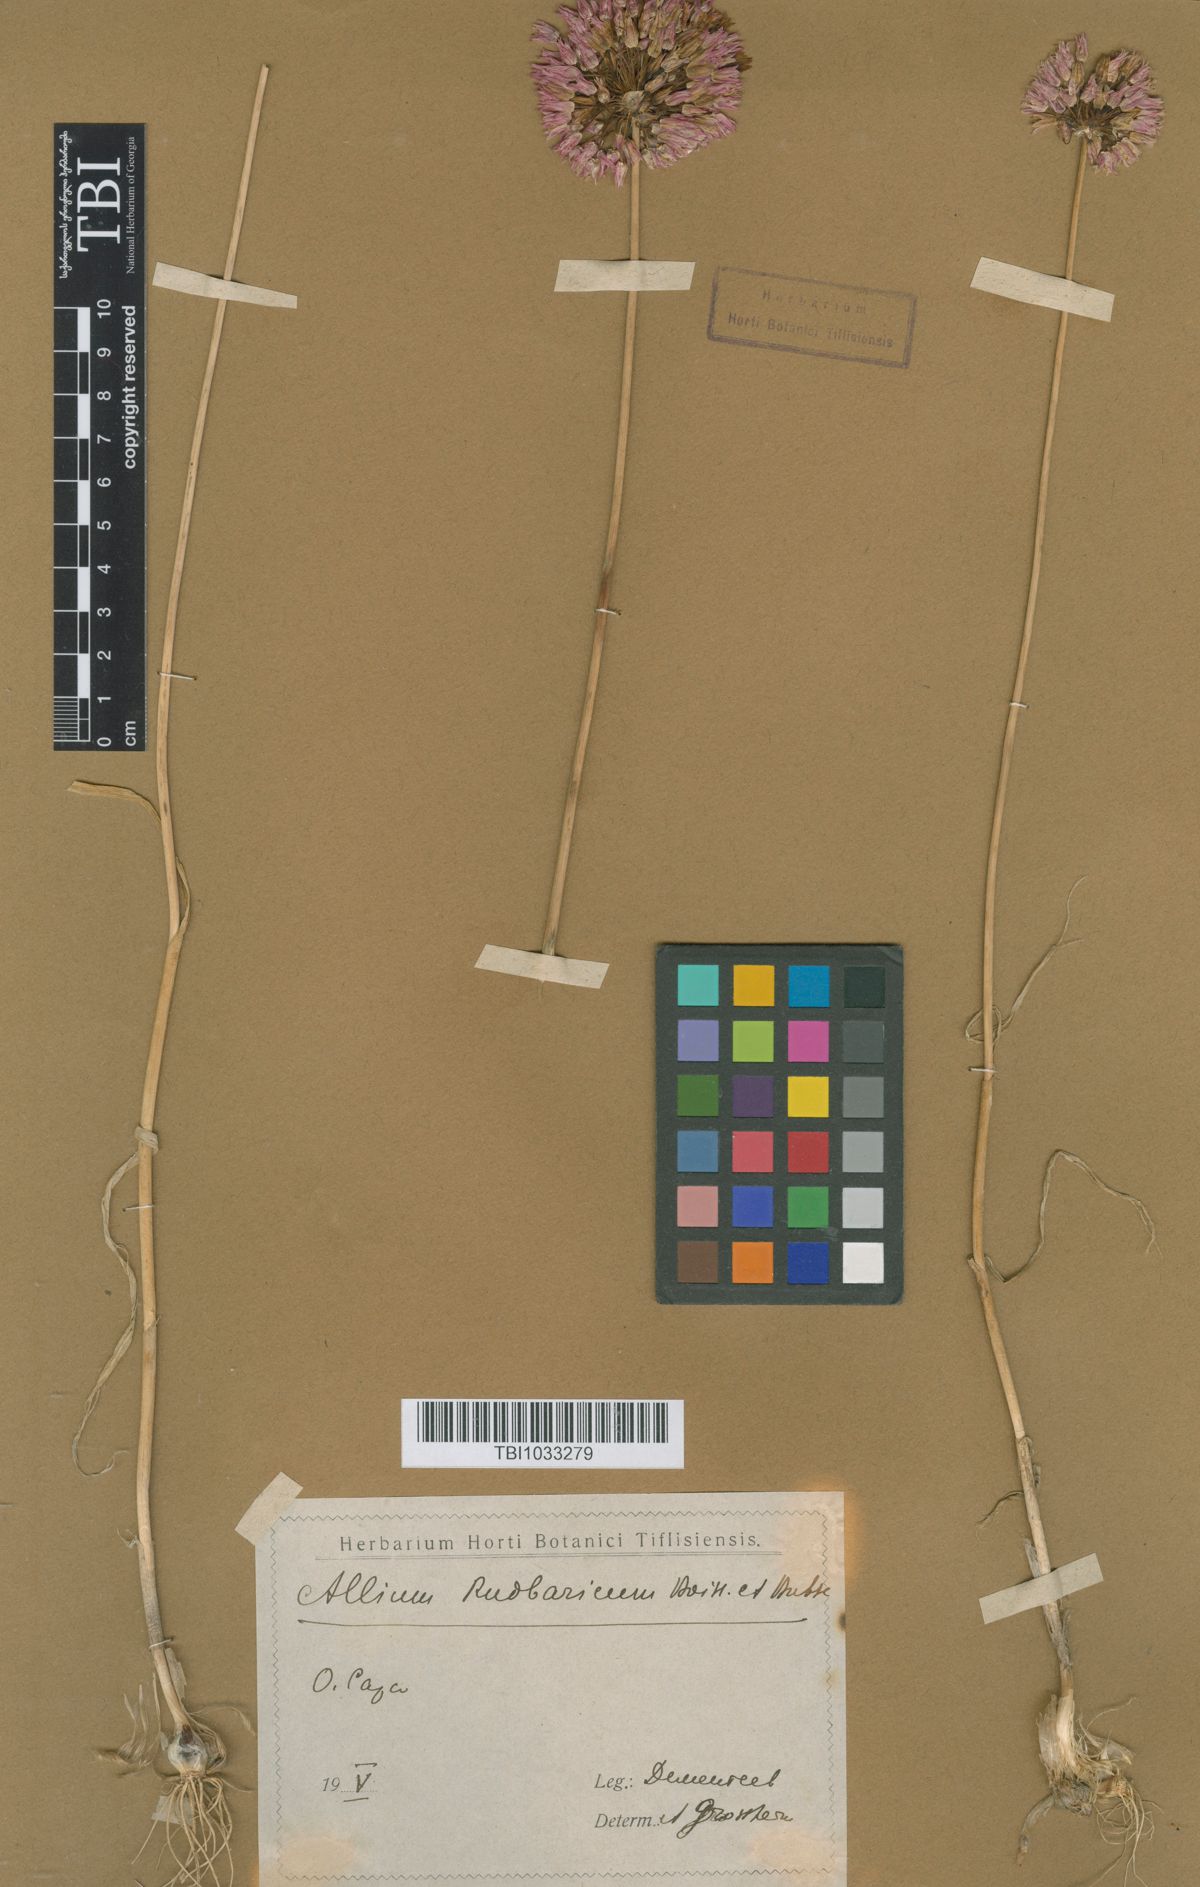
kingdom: Plantae
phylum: Tracheophyta
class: Liliopsida
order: Asparagales
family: Amaryllidaceae
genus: Allium
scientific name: Allium erubescens
